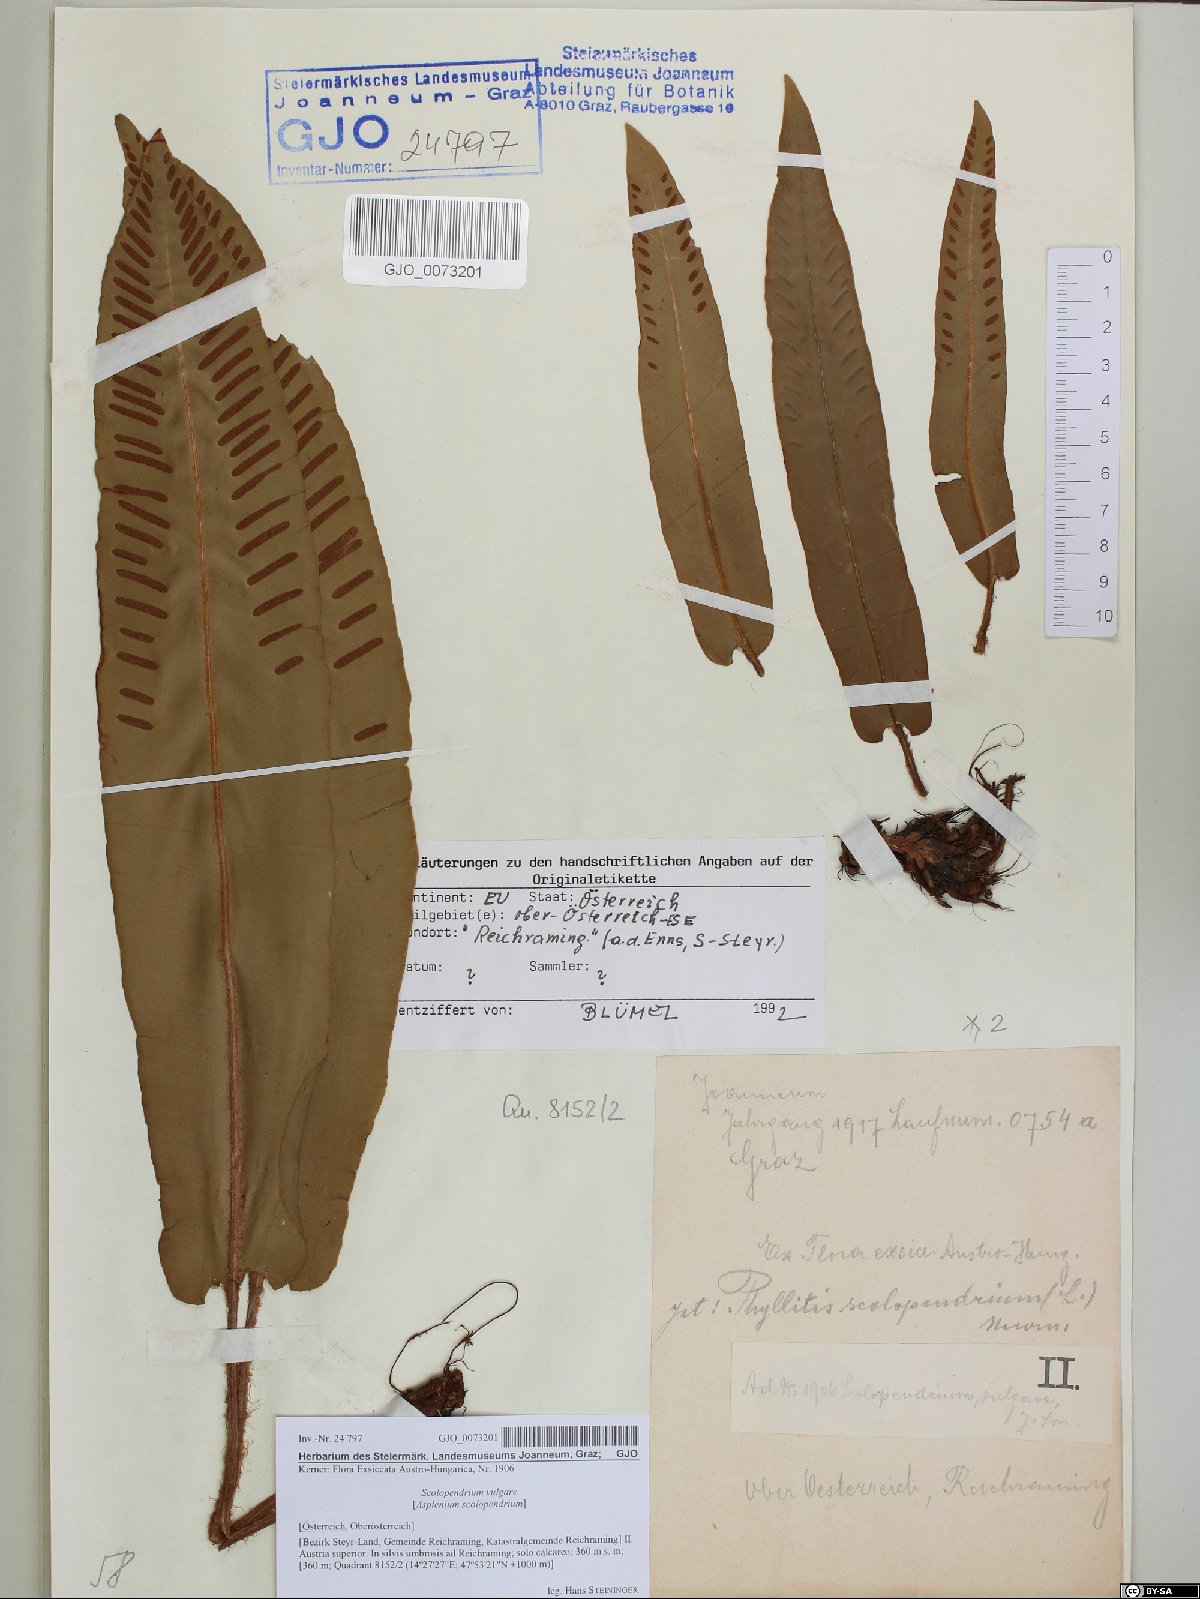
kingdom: Plantae
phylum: Tracheophyta
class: Polypodiopsida
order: Polypodiales
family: Aspleniaceae
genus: Asplenium
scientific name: Asplenium scolopendrium
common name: Hart's-tongue fern
